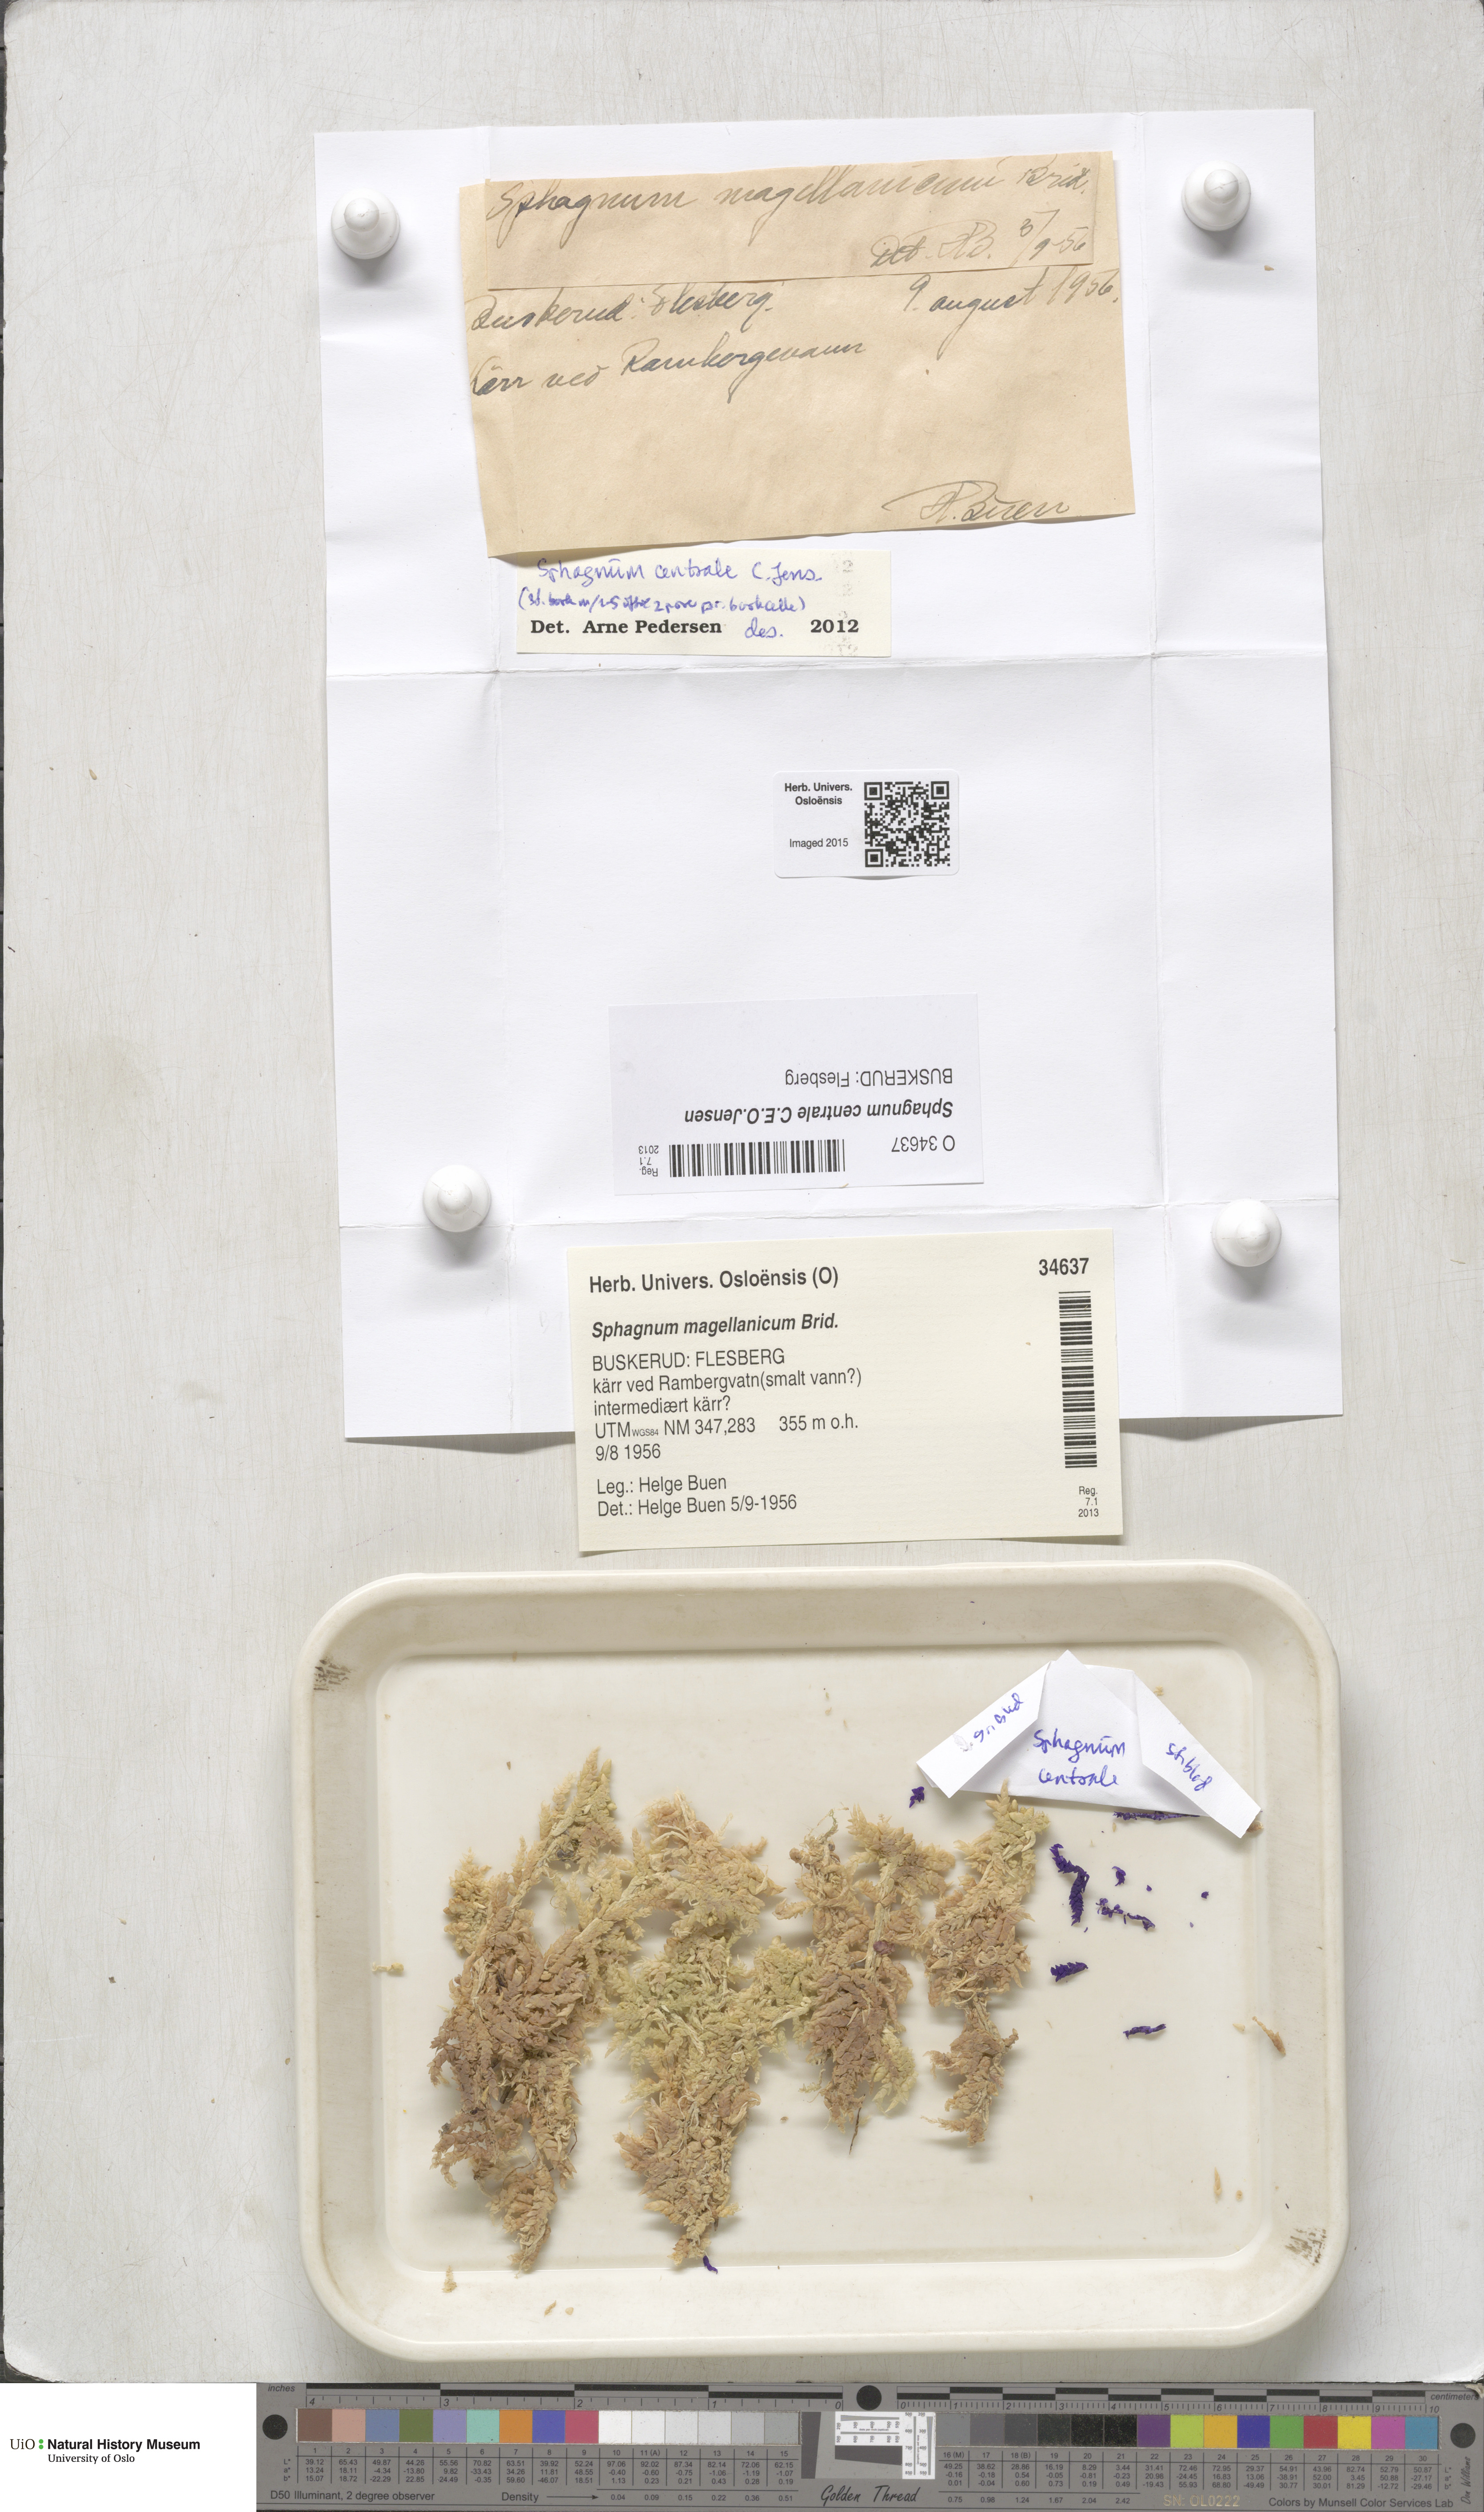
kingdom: Plantae
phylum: Bryophyta
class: Sphagnopsida
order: Sphagnales
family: Sphagnaceae
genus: Sphagnum
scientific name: Sphagnum centrale
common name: Central peat moss
